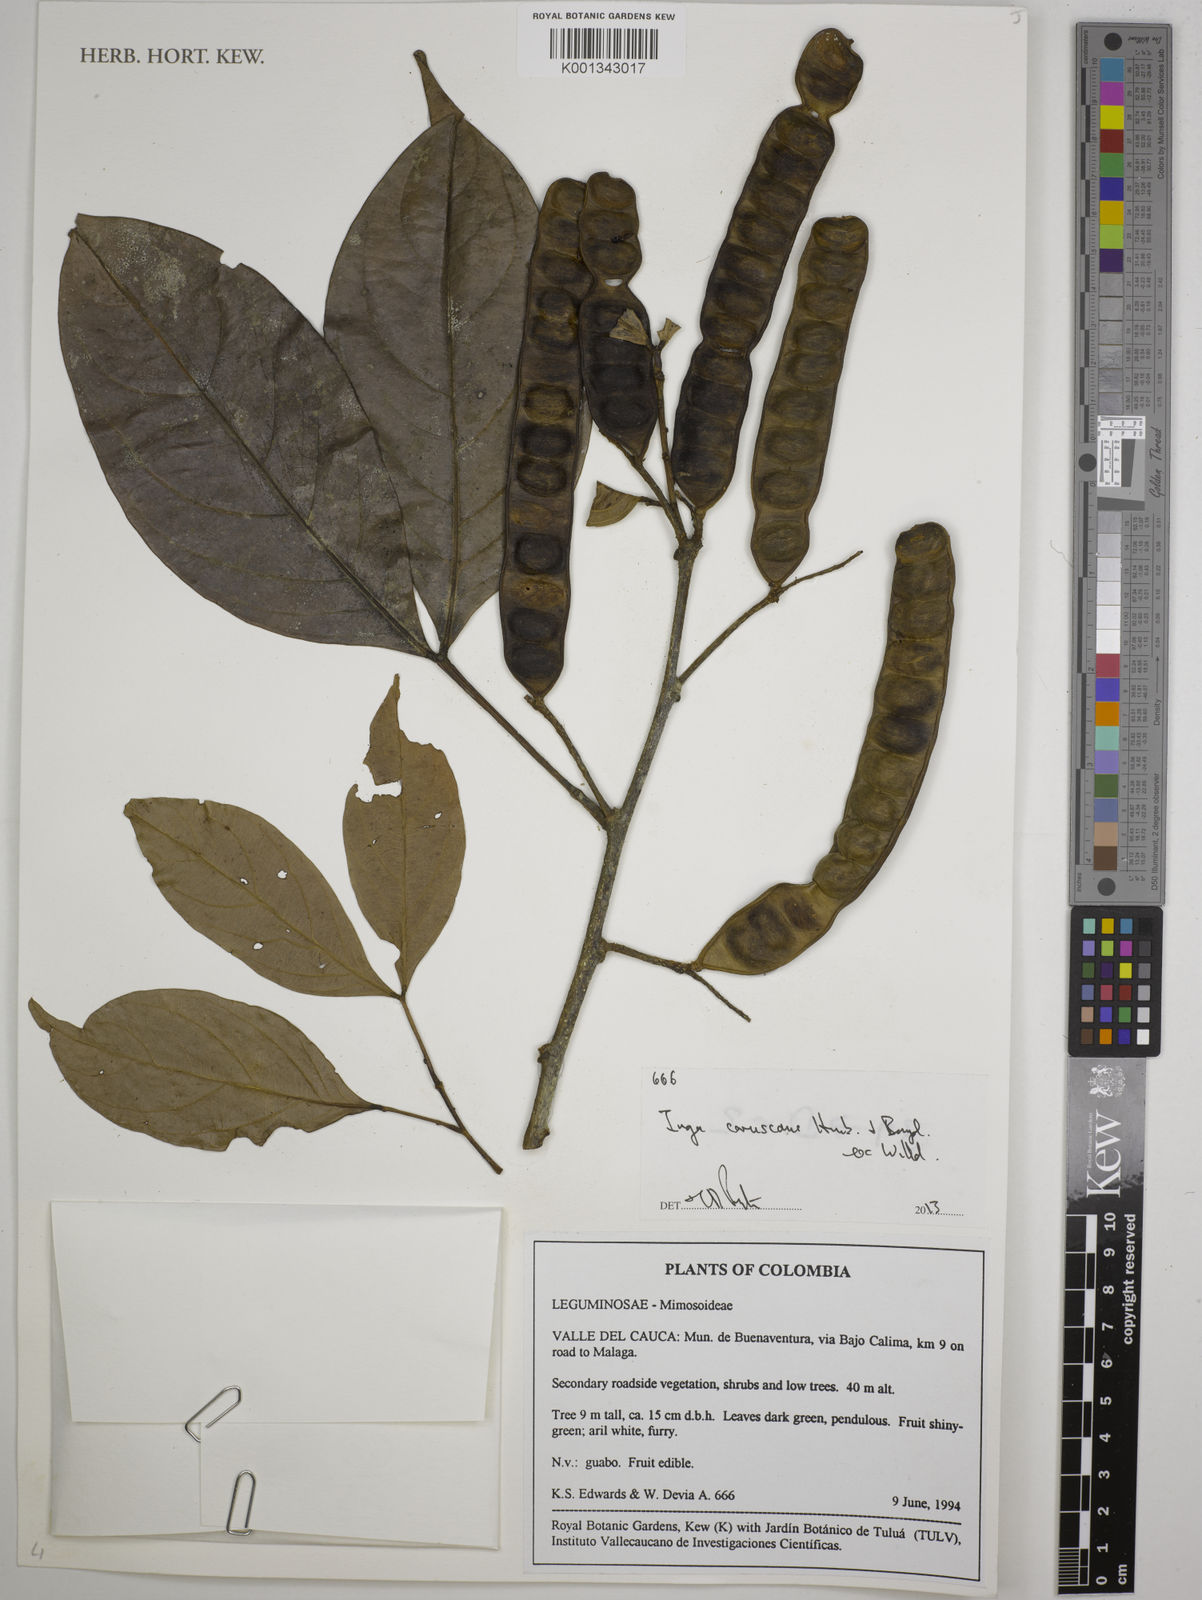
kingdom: Plantae
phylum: Tracheophyta
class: Magnoliopsida
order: Fabales
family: Fabaceae
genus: Inga
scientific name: Inga coruscans
